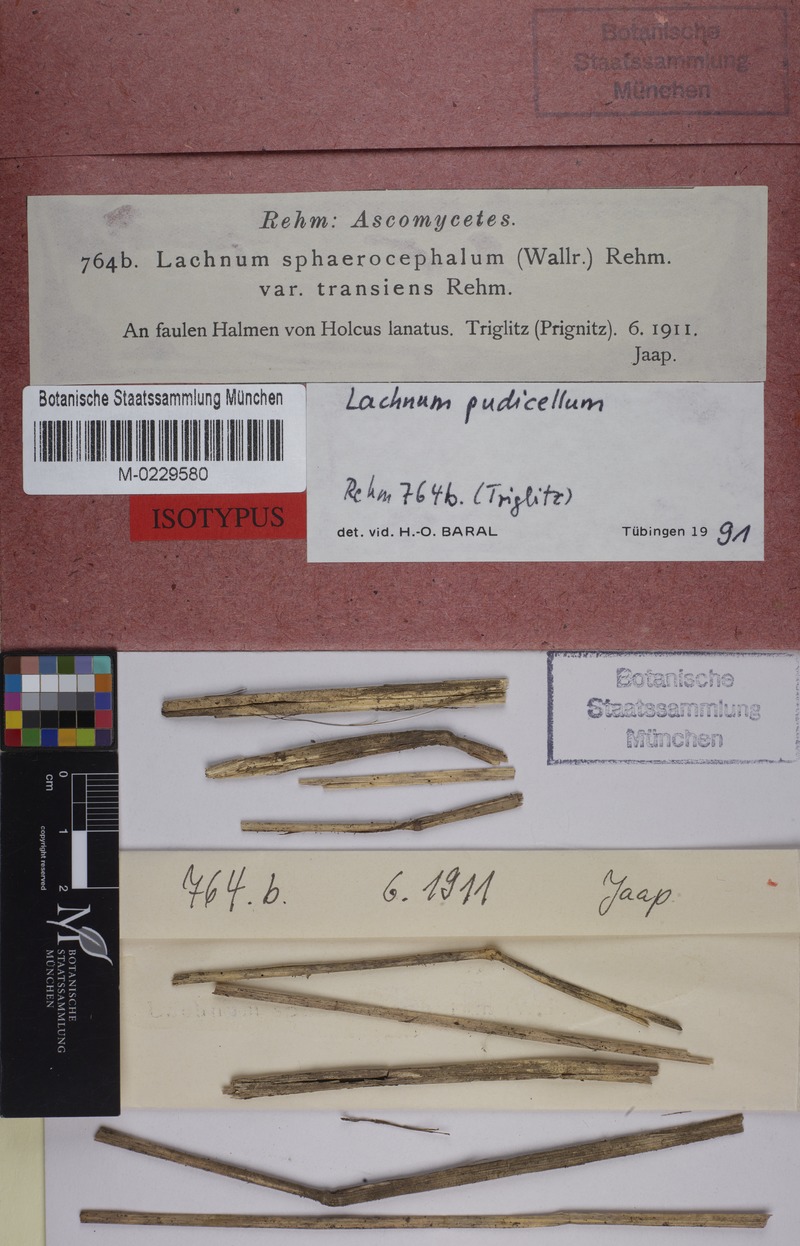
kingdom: Fungi
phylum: Ascomycota
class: Leotiomycetes
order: Helotiales
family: Lachnaceae
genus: Lachnum
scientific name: Lachnum tenuissimum
